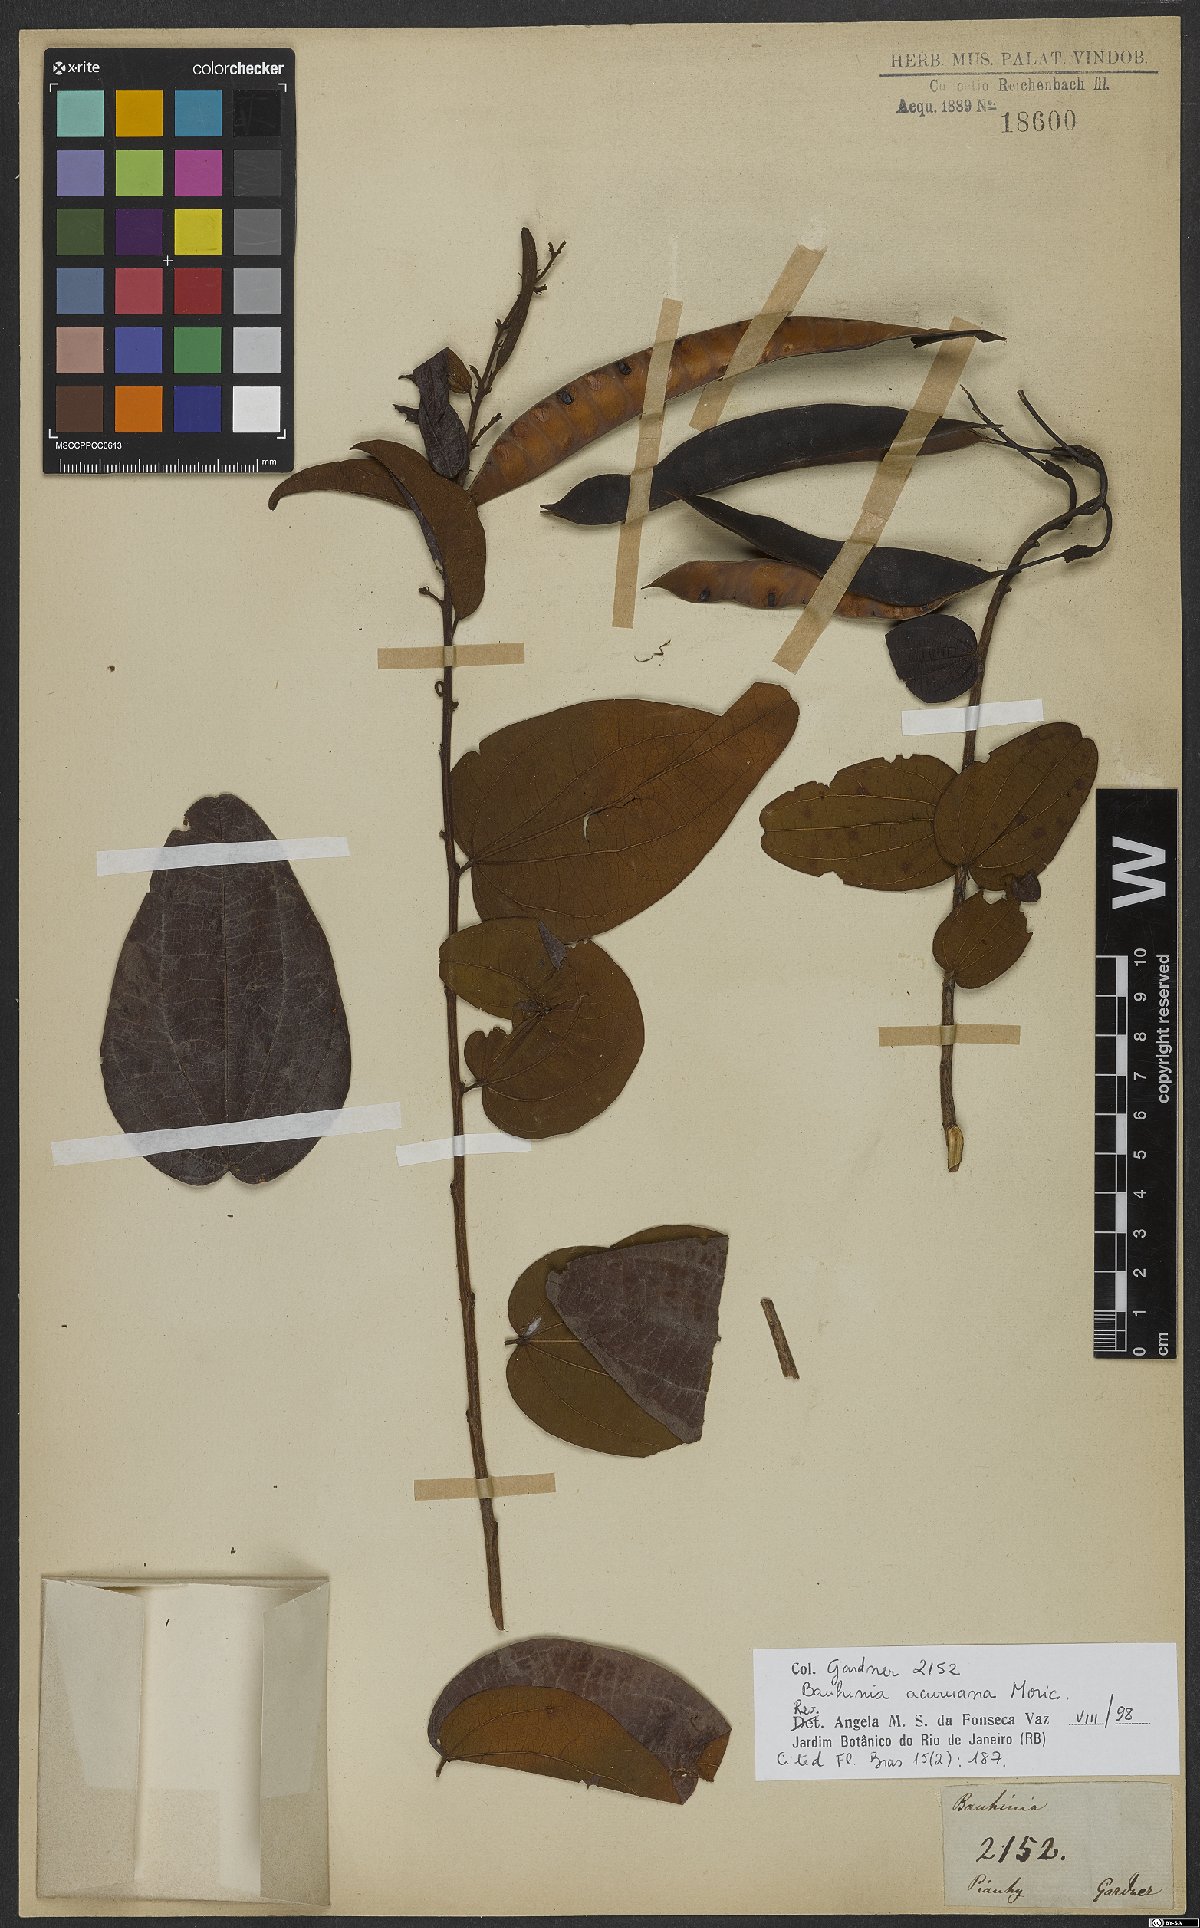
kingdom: Plantae
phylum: Tracheophyta
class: Magnoliopsida
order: Fabales
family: Fabaceae
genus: Bauhinia
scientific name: Bauhinia acuruana
